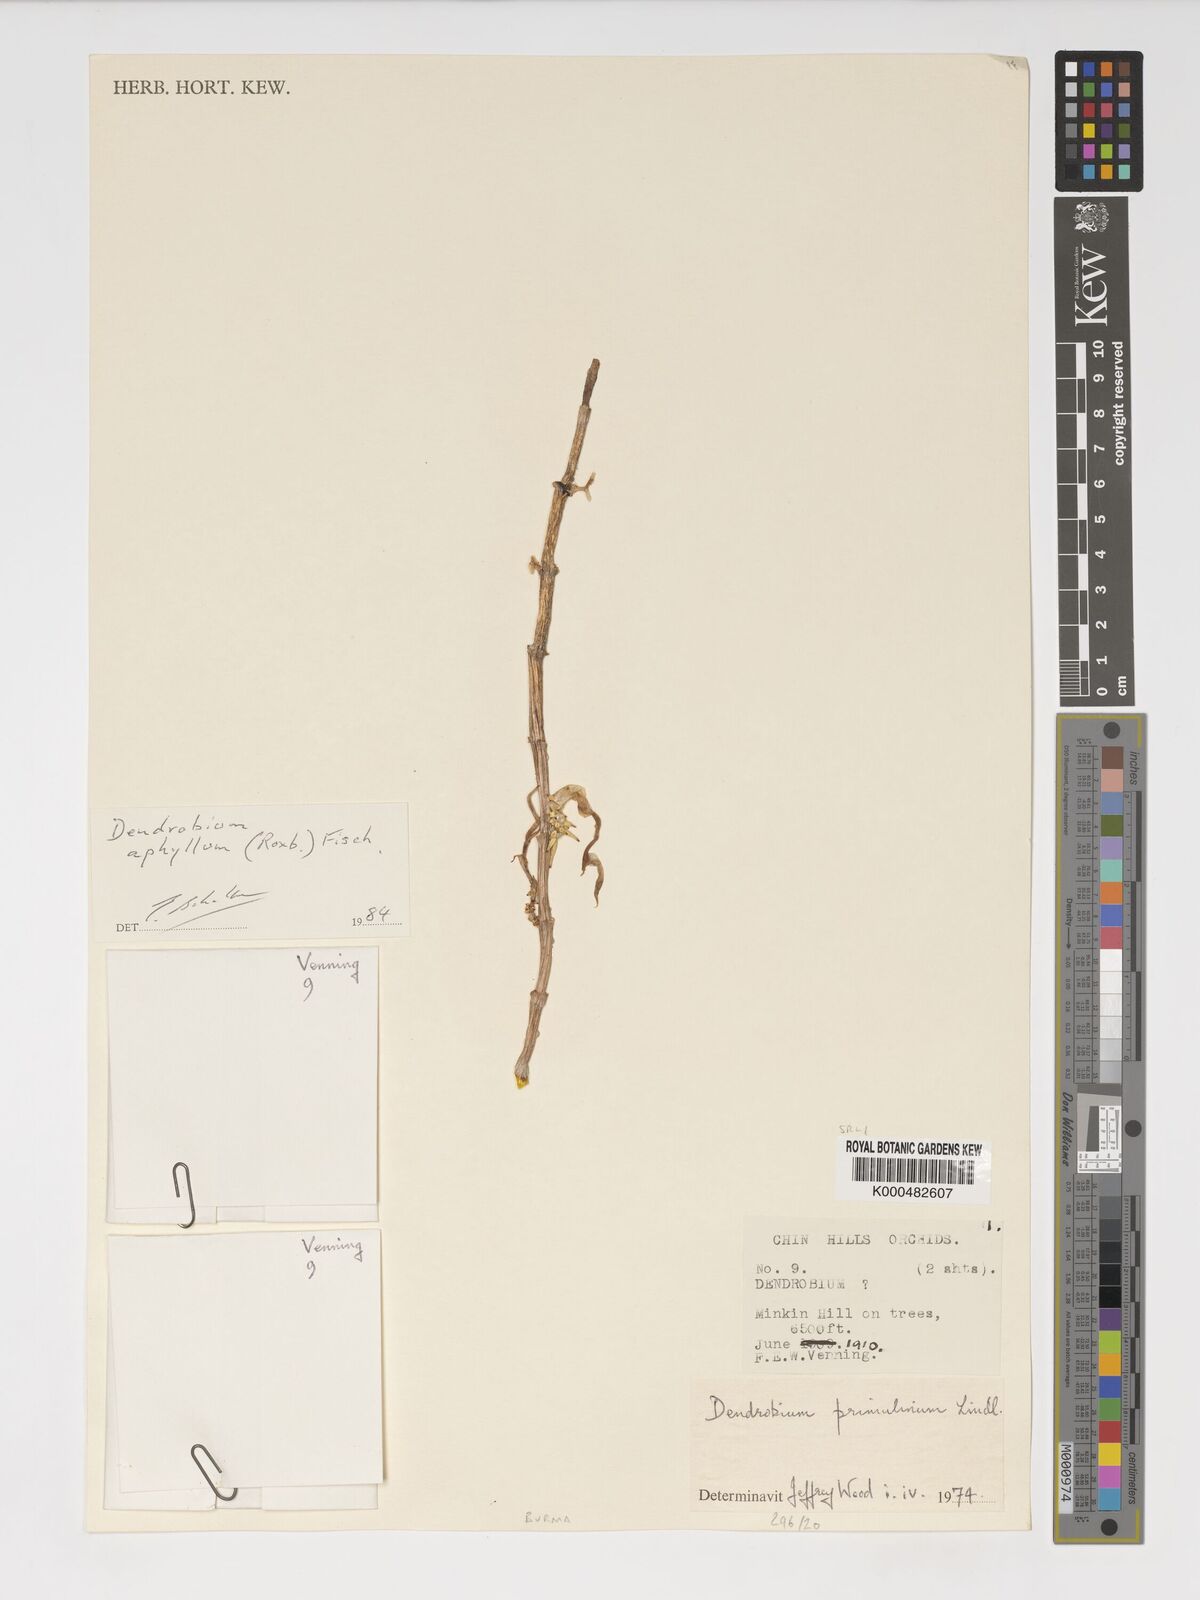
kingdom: Plantae
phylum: Tracheophyta
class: Liliopsida
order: Asparagales
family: Orchidaceae
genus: Dendrobium
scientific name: Dendrobium macrostachyum
